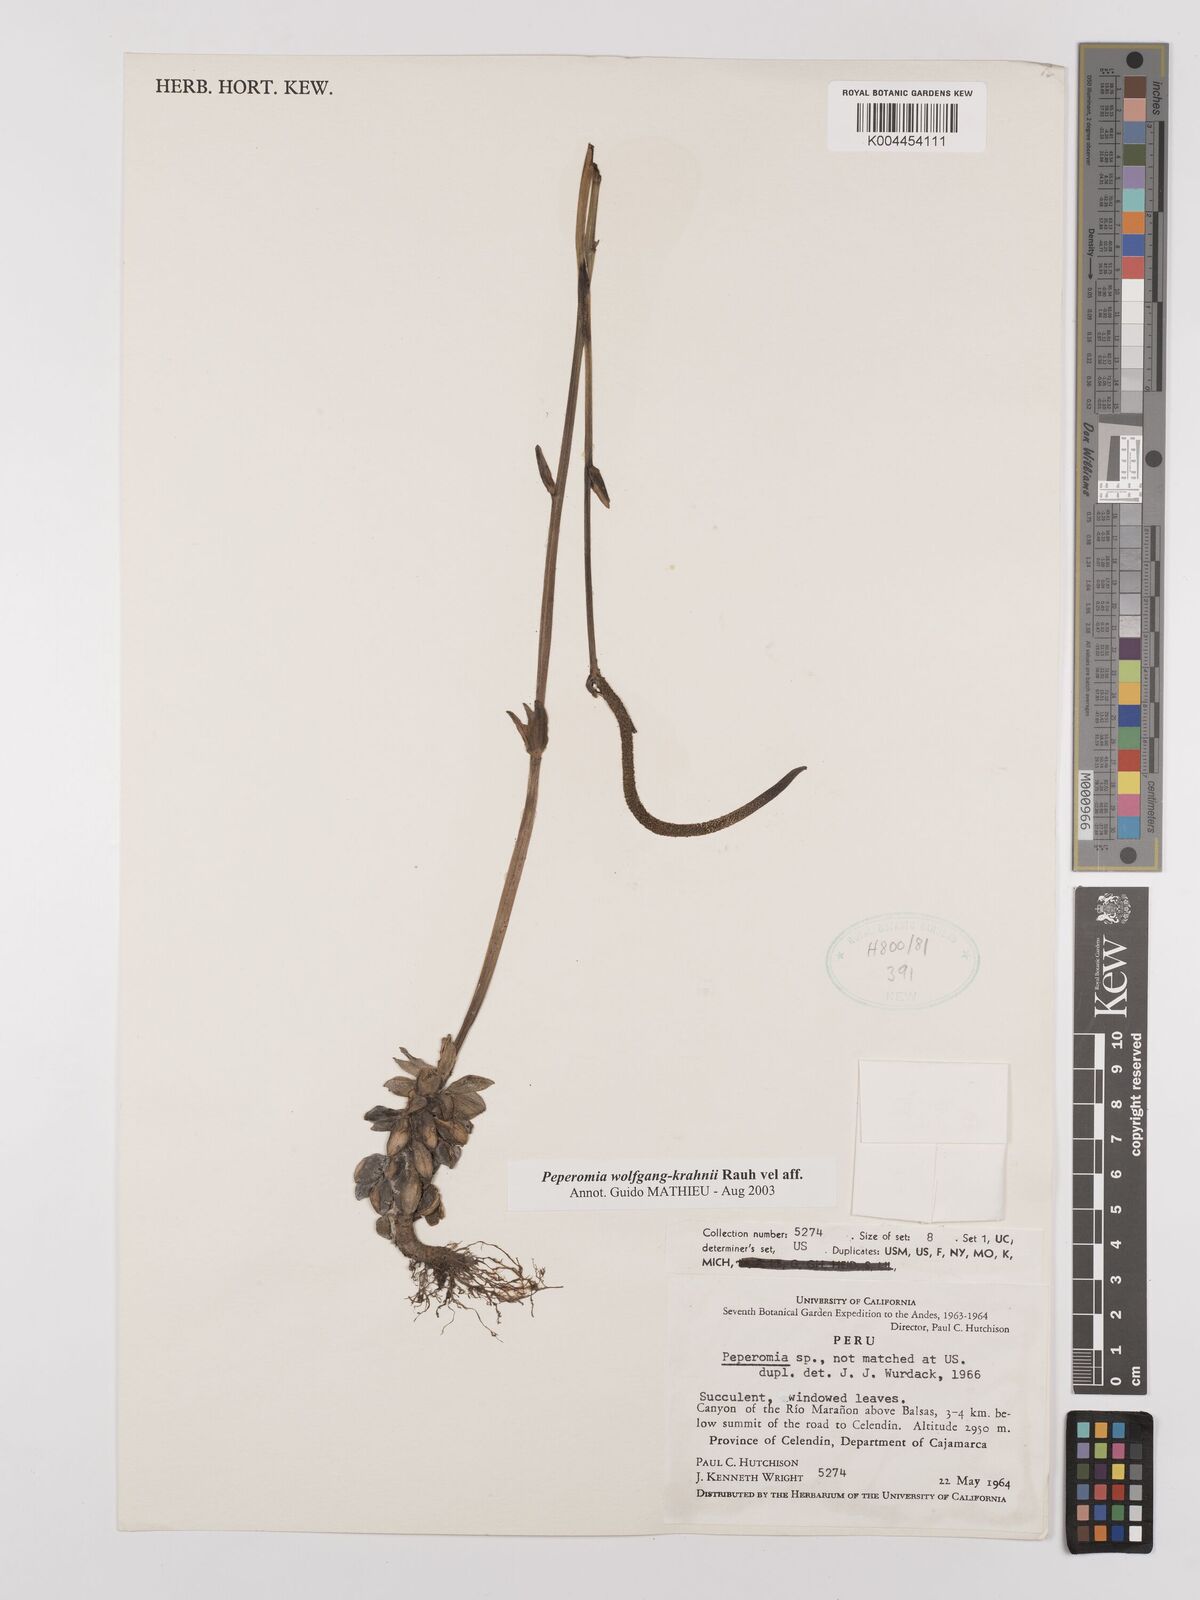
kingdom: Plantae
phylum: Tracheophyta
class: Magnoliopsida
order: Piperales
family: Piperaceae
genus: Peperomia
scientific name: Peperomia wolfgang-krahnii
